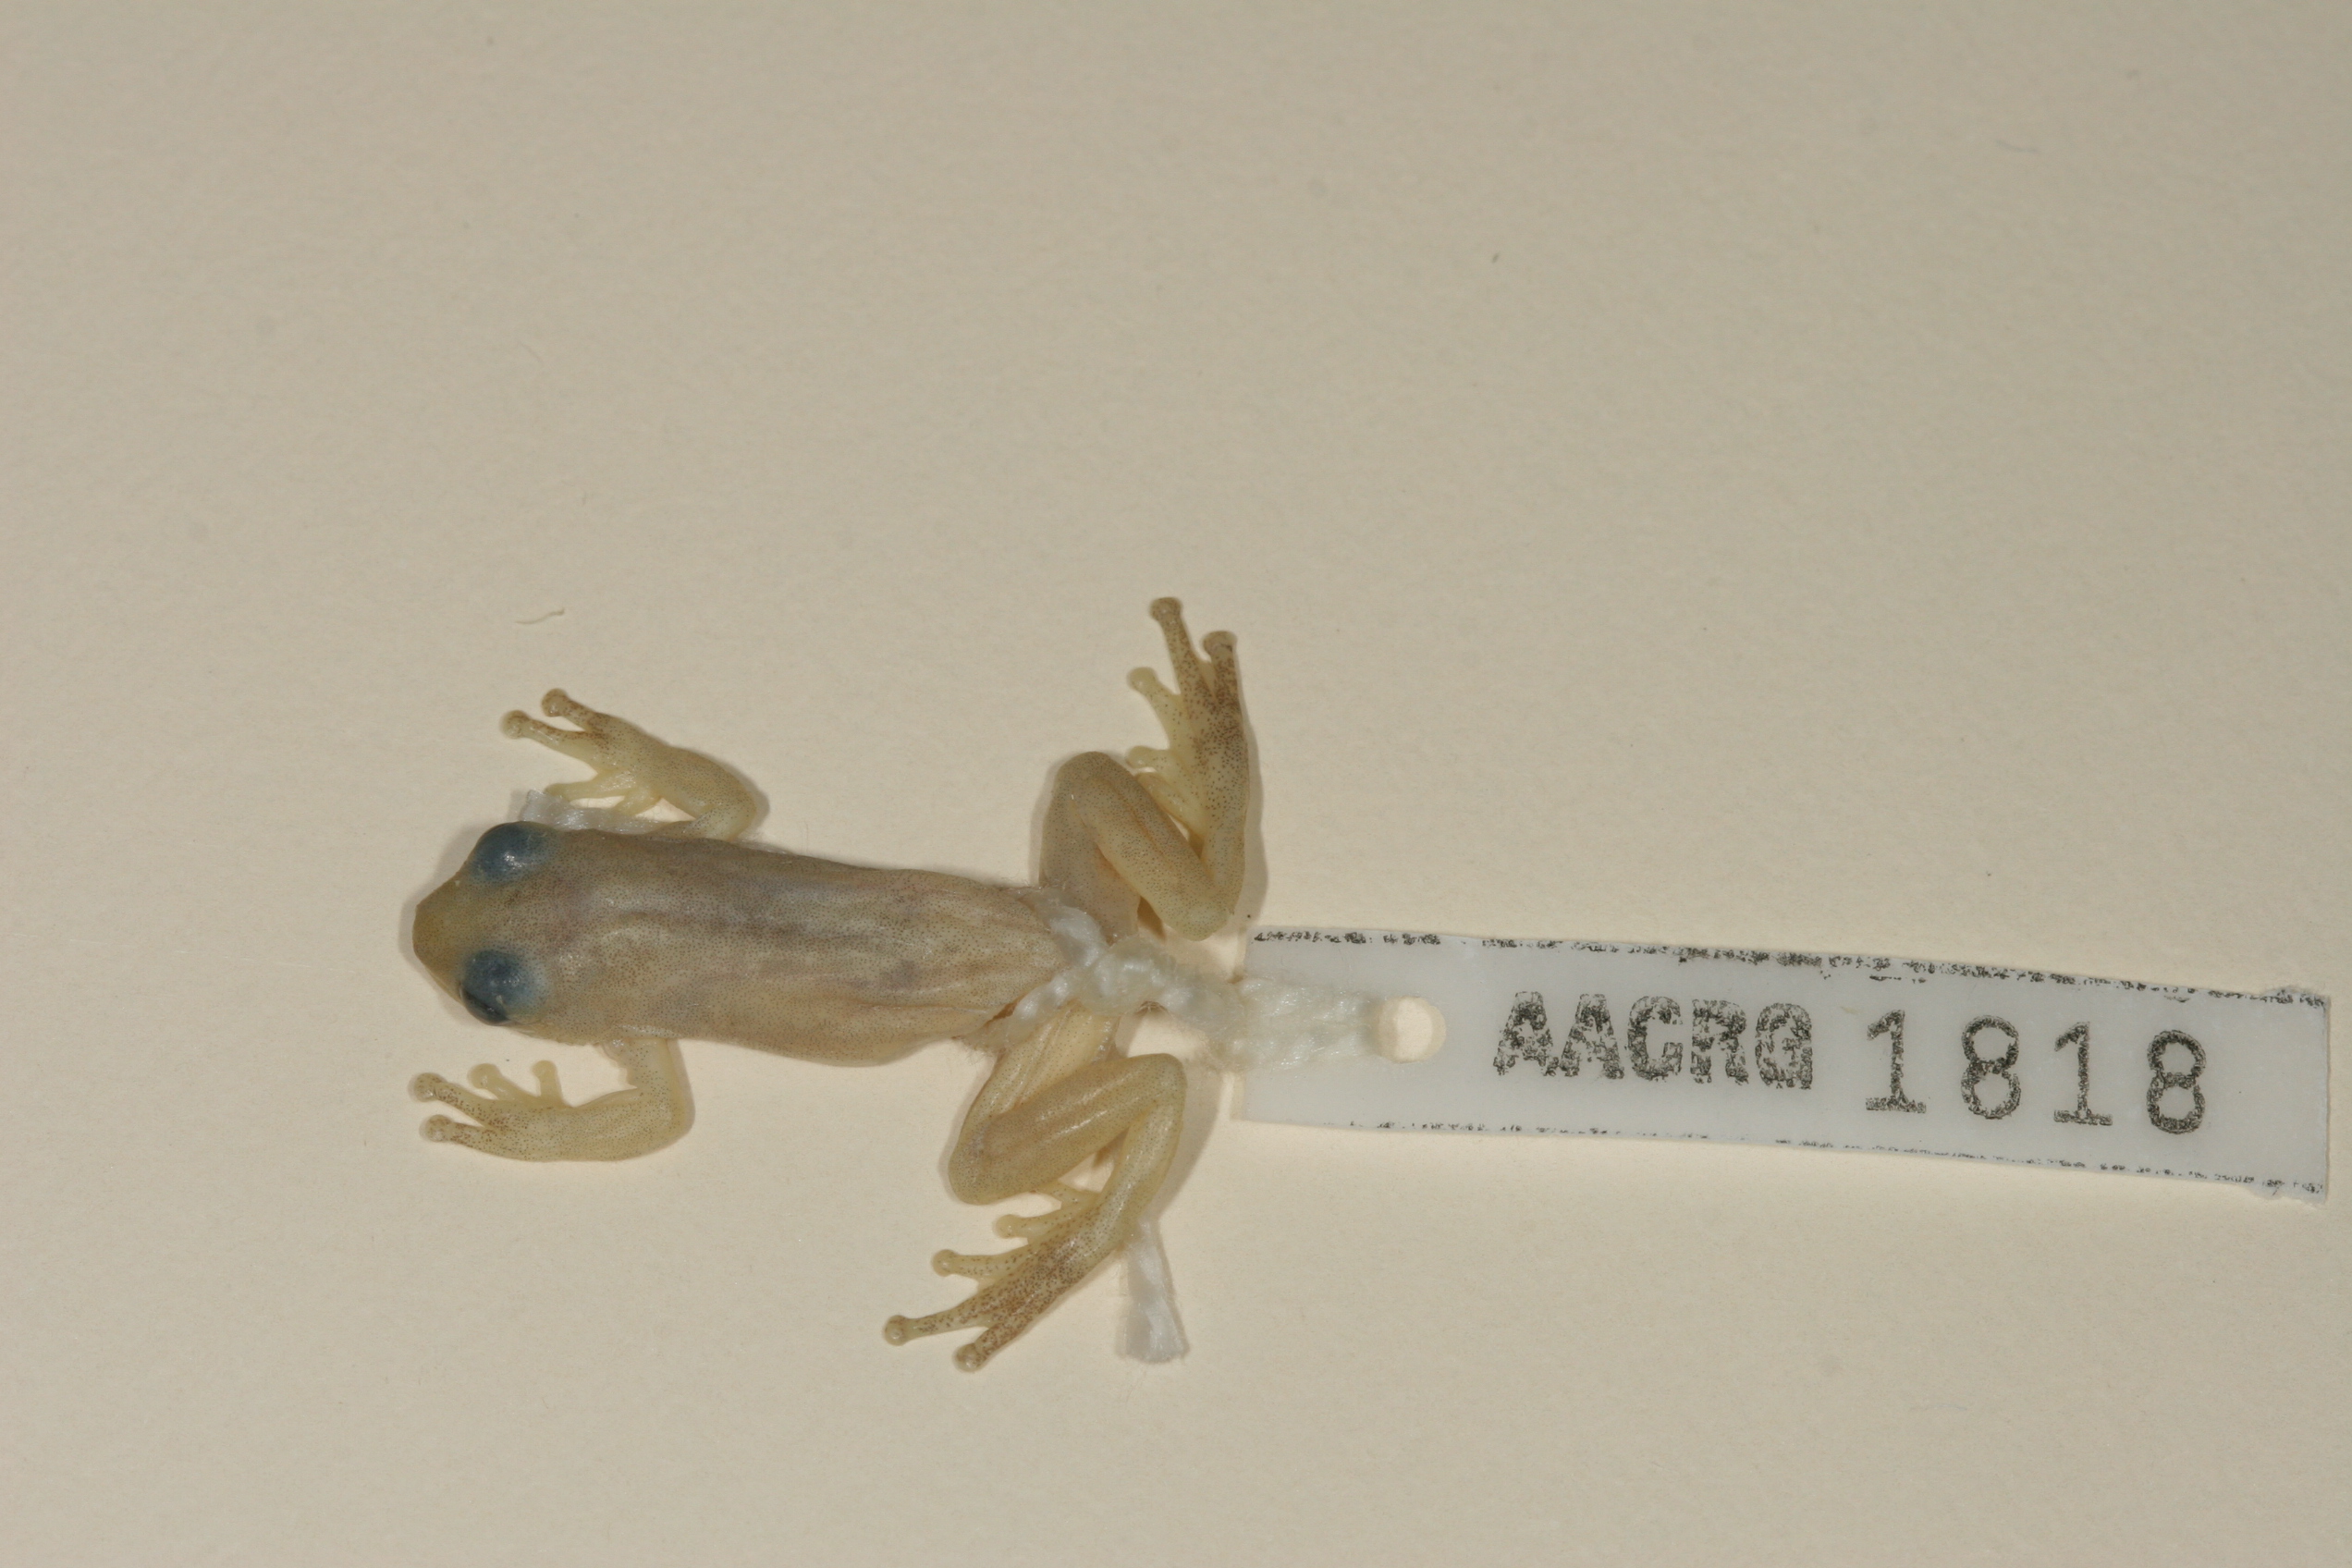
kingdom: Animalia
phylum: Chordata
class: Amphibia
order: Anura
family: Hyperoliidae
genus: Afrixalus
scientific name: Afrixalus delicatus
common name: Delicate leaf-folding frog
